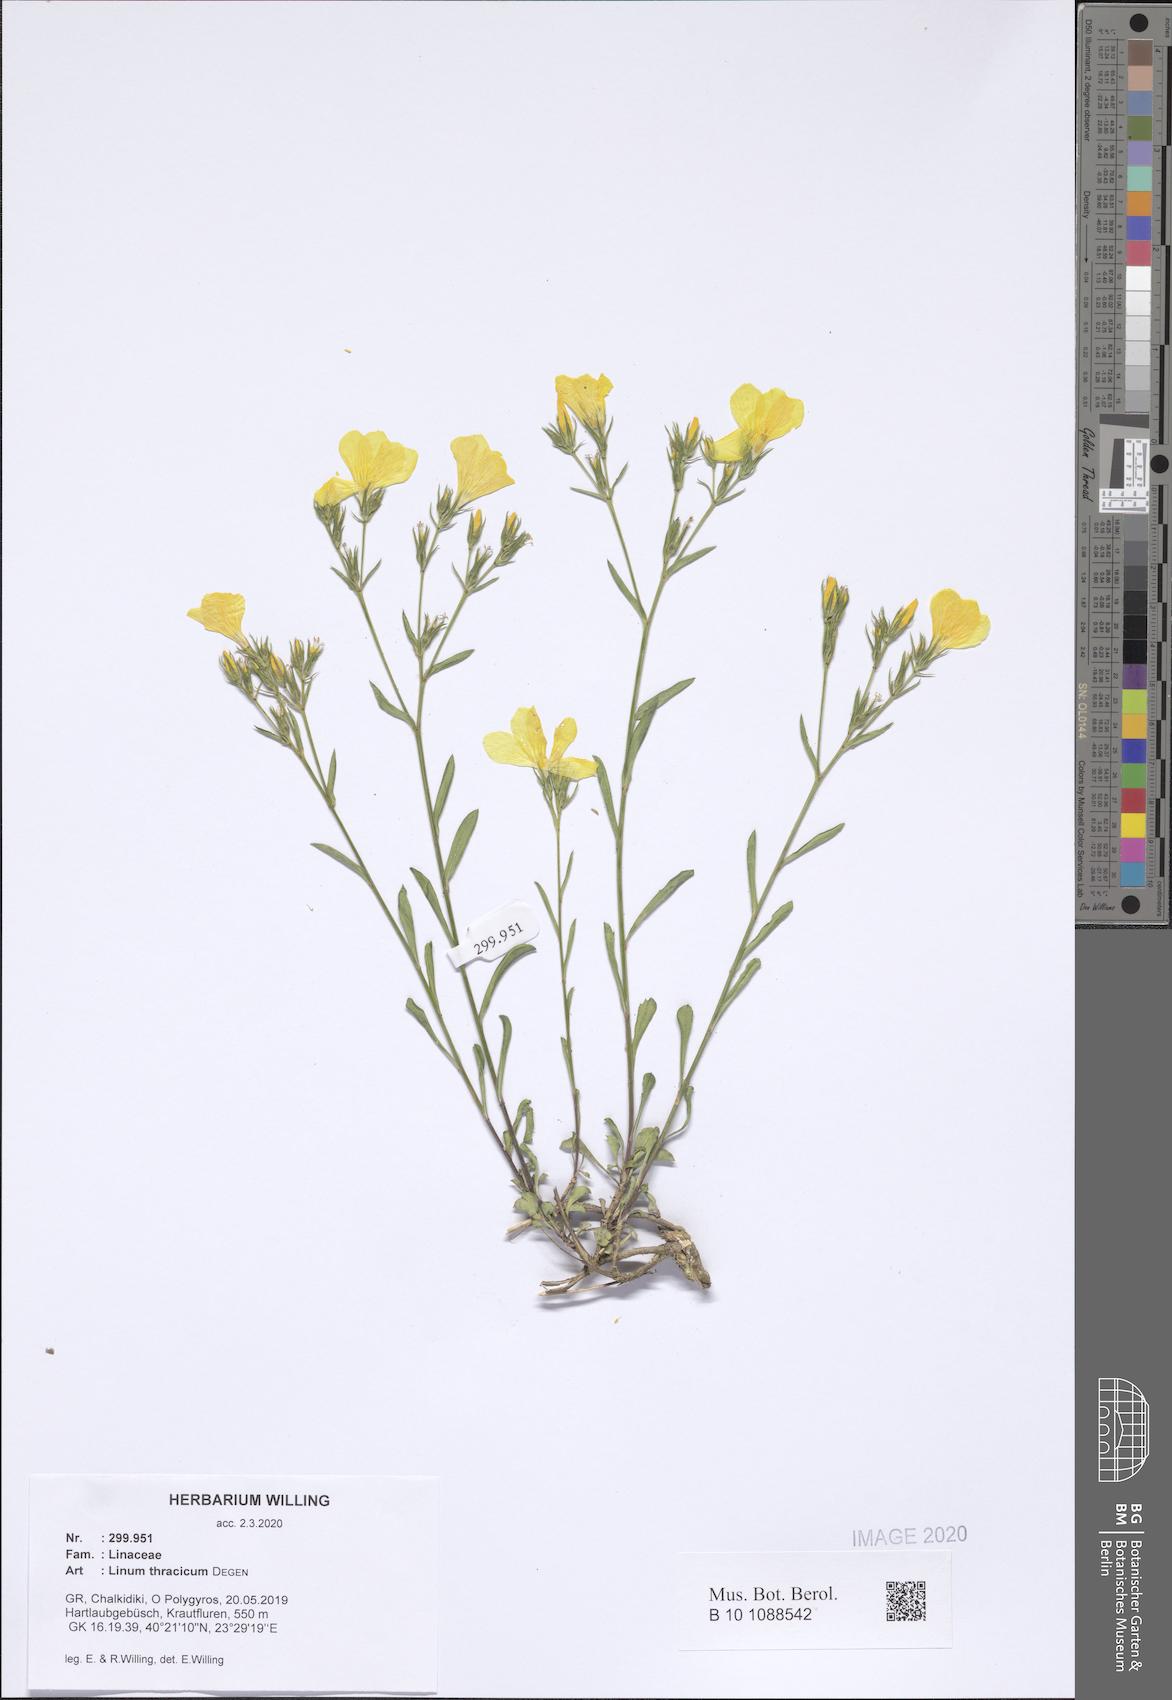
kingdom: Plantae
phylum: Tracheophyta
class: Magnoliopsida
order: Malpighiales
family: Linaceae
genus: Linum
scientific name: Linum thracicum
